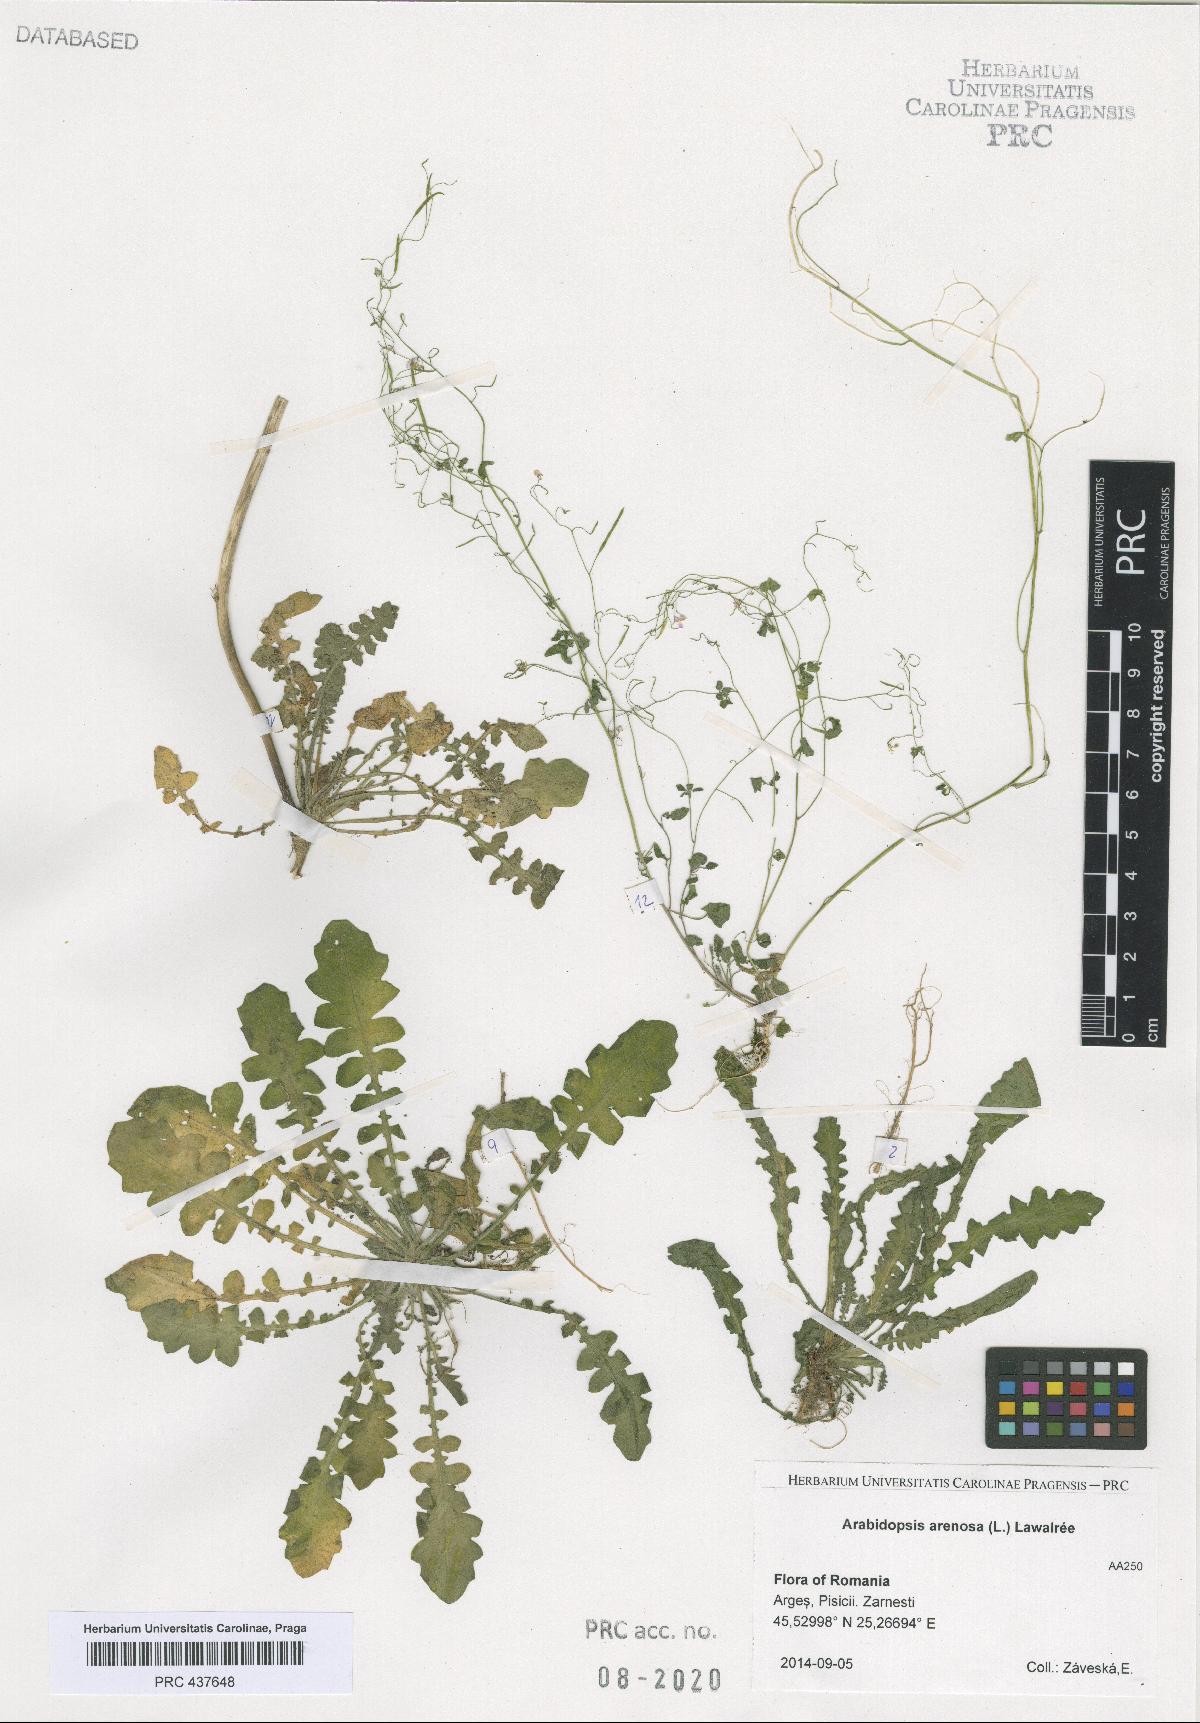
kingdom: Plantae
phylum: Tracheophyta
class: Magnoliopsida
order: Brassicales
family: Brassicaceae
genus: Arabidopsis
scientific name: Arabidopsis arenosa
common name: Sand rock-cress
